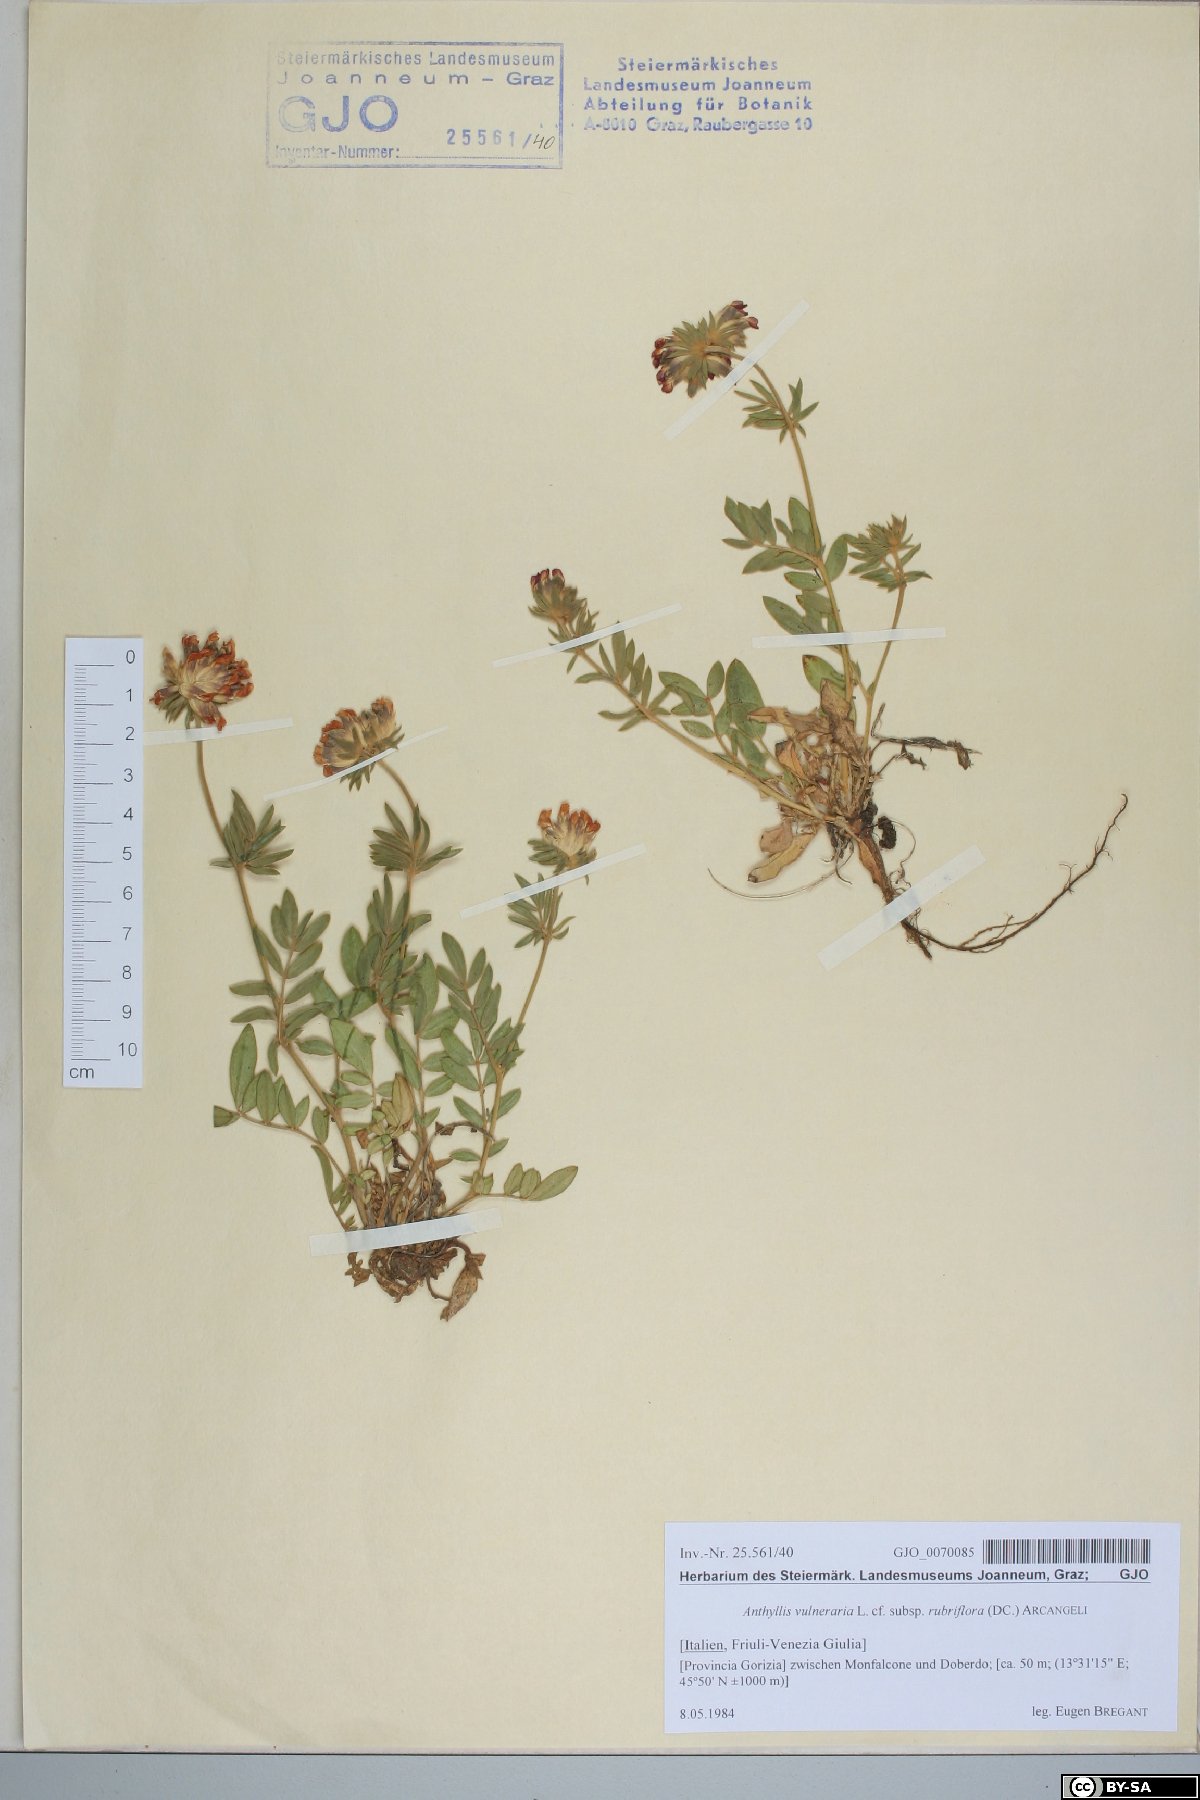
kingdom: Plantae
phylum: Tracheophyta
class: Magnoliopsida
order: Fabales
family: Fabaceae
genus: Anthyllis
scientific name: Anthyllis vulneraria
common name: Kidney vetch
